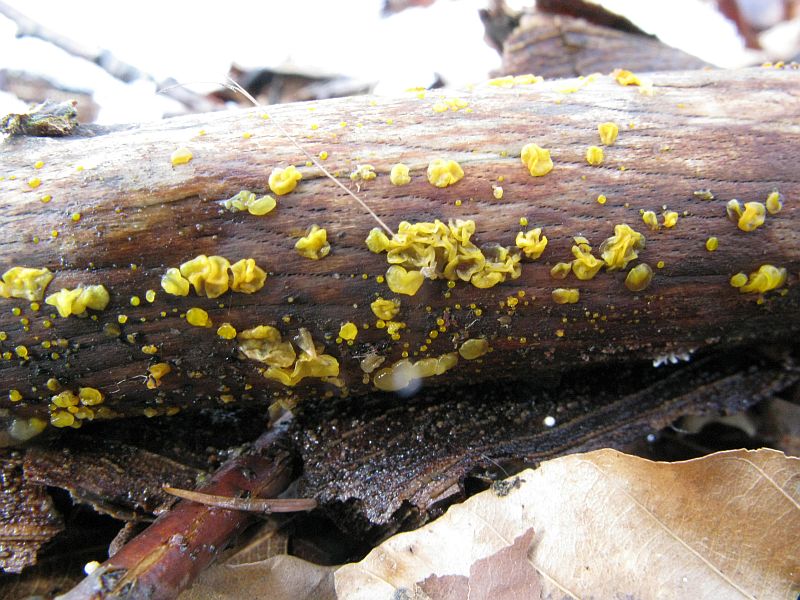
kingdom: Fungi
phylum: Basidiomycota
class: Dacrymycetes
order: Dacrymycetales
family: Dacrymycetaceae
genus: Dacrymyces
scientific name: Dacrymyces lacrymalis
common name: rynket tåresvamp
